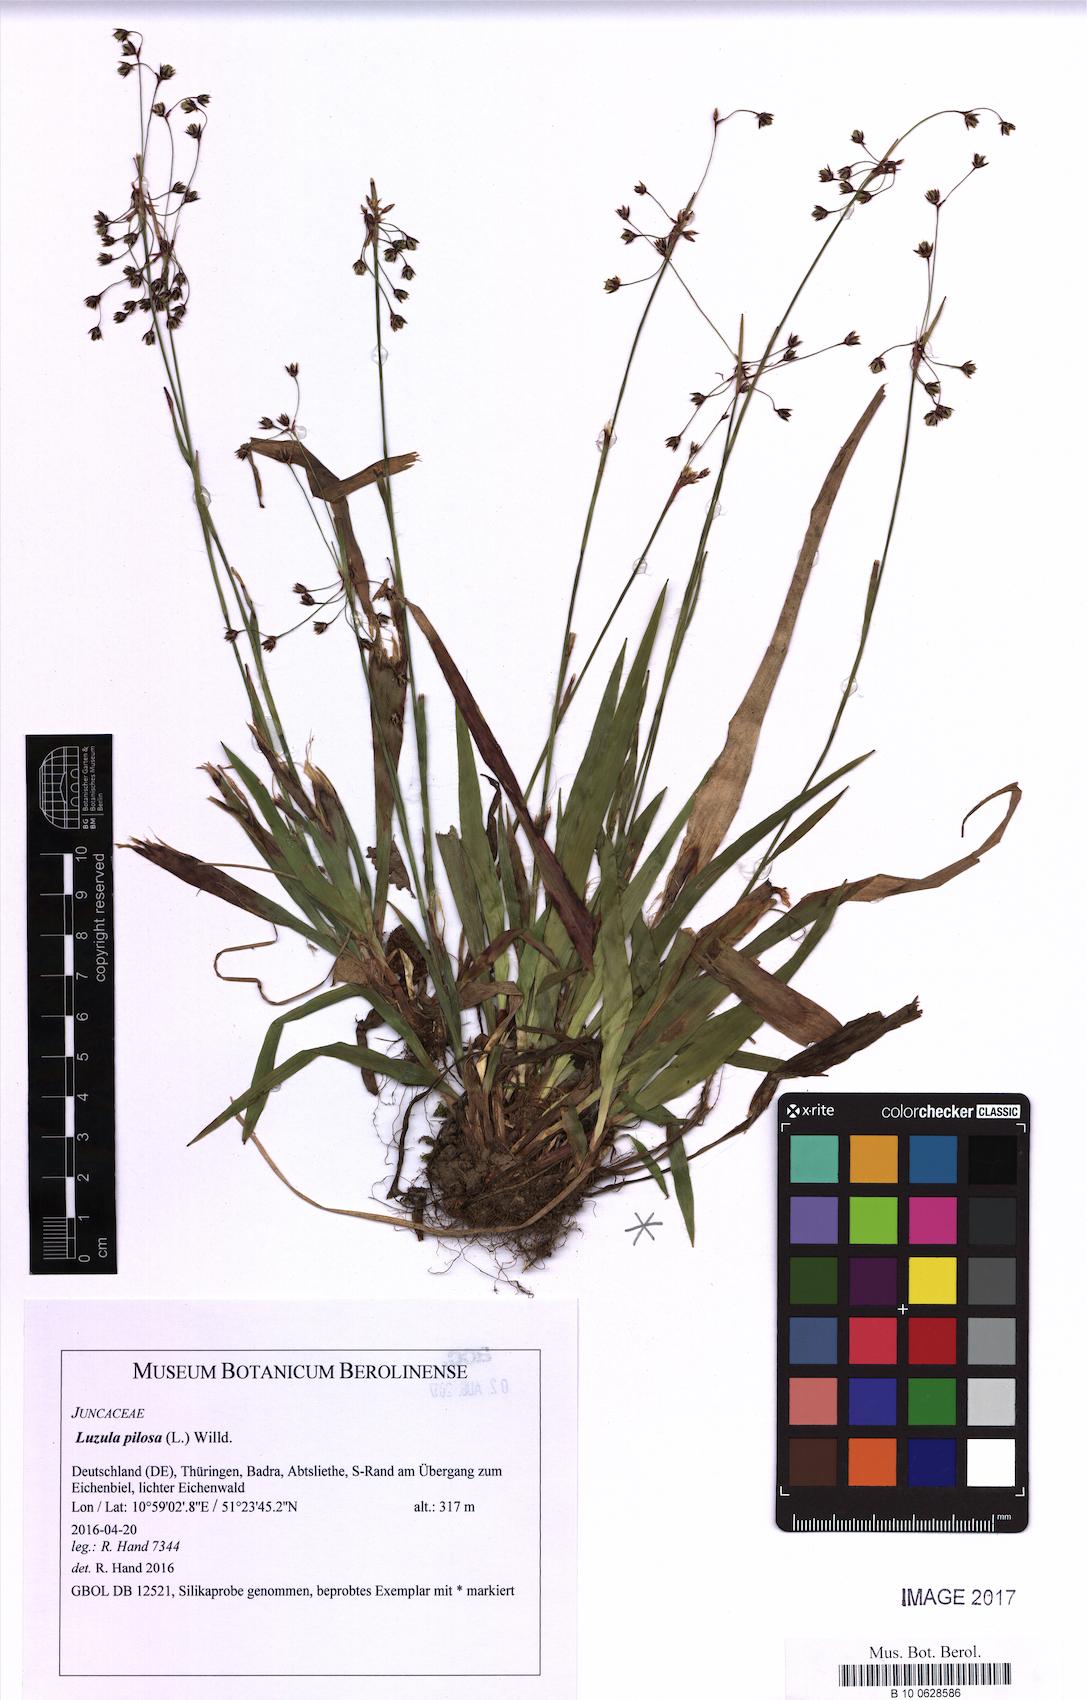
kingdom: Plantae
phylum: Tracheophyta
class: Liliopsida
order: Poales
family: Juncaceae
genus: Luzula
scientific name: Luzula pilosa
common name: Hairy wood-rush
